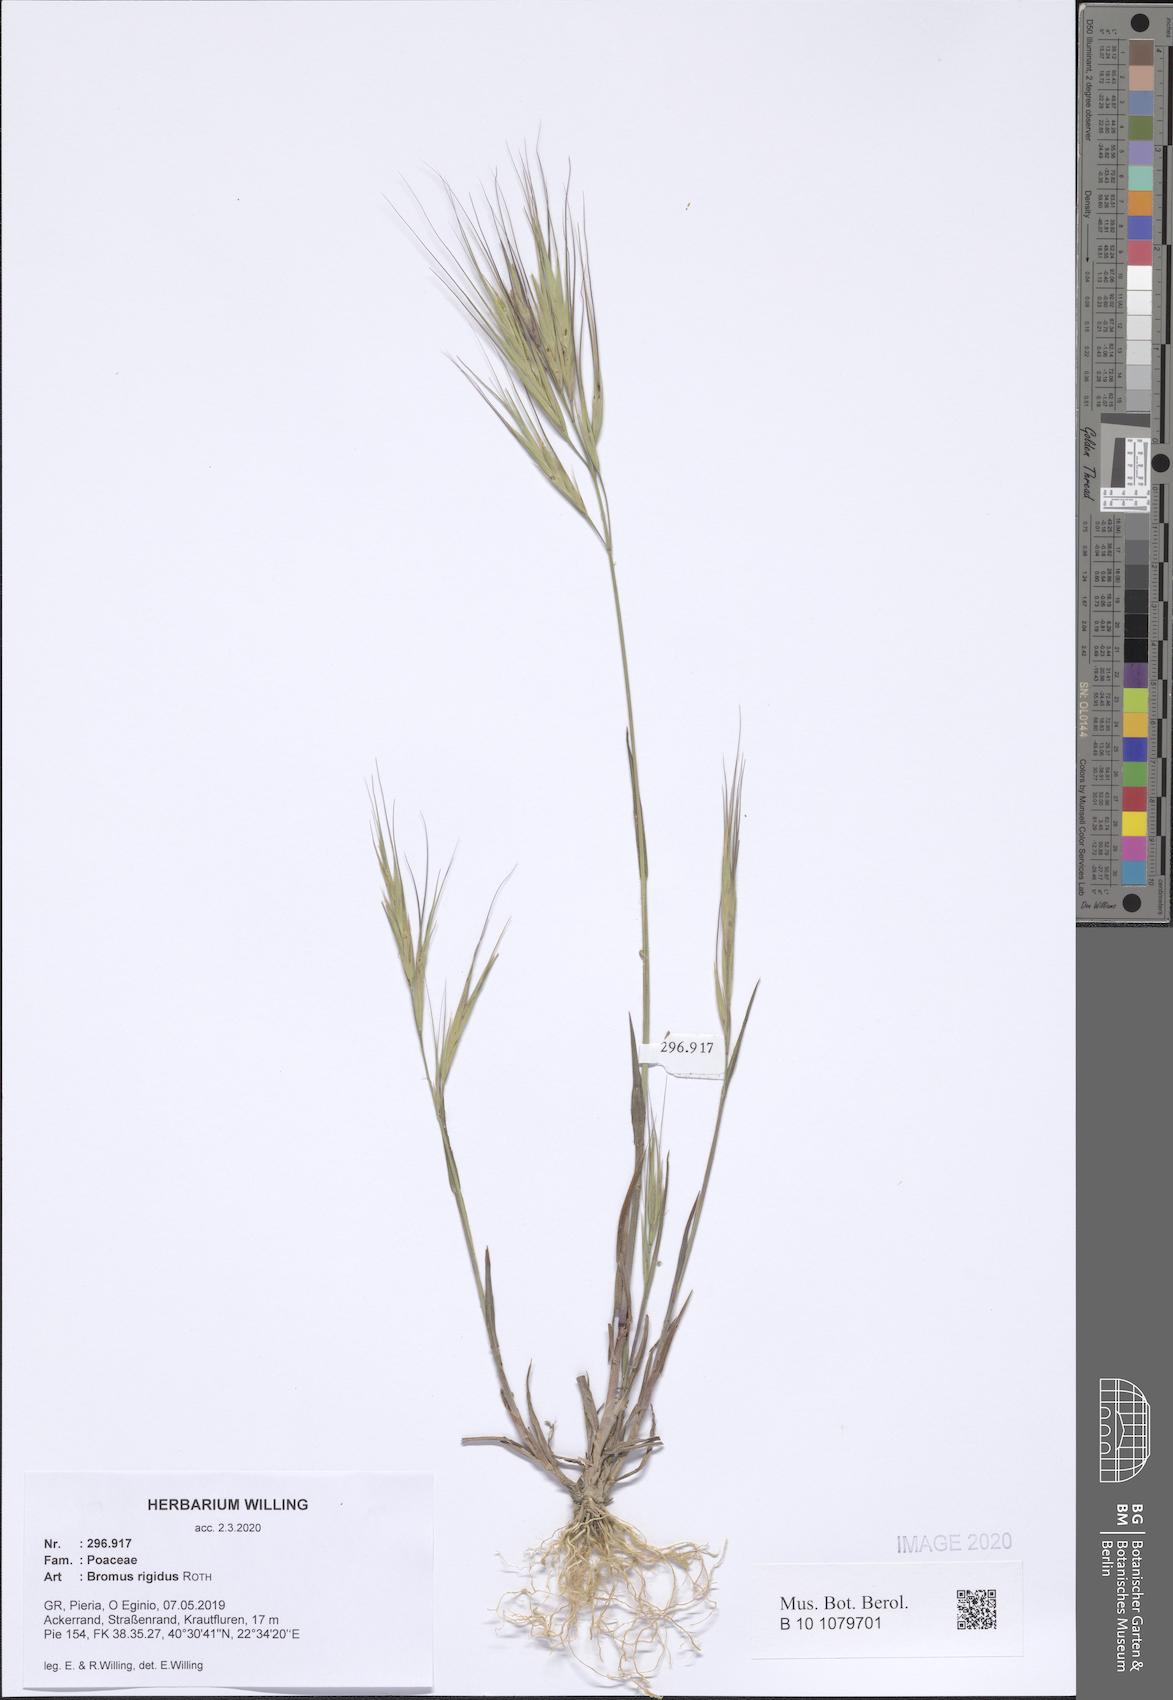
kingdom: Plantae
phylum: Tracheophyta
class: Liliopsida
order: Poales
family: Poaceae
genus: Bromus
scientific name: Bromus rigidus
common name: Ripgut brome
